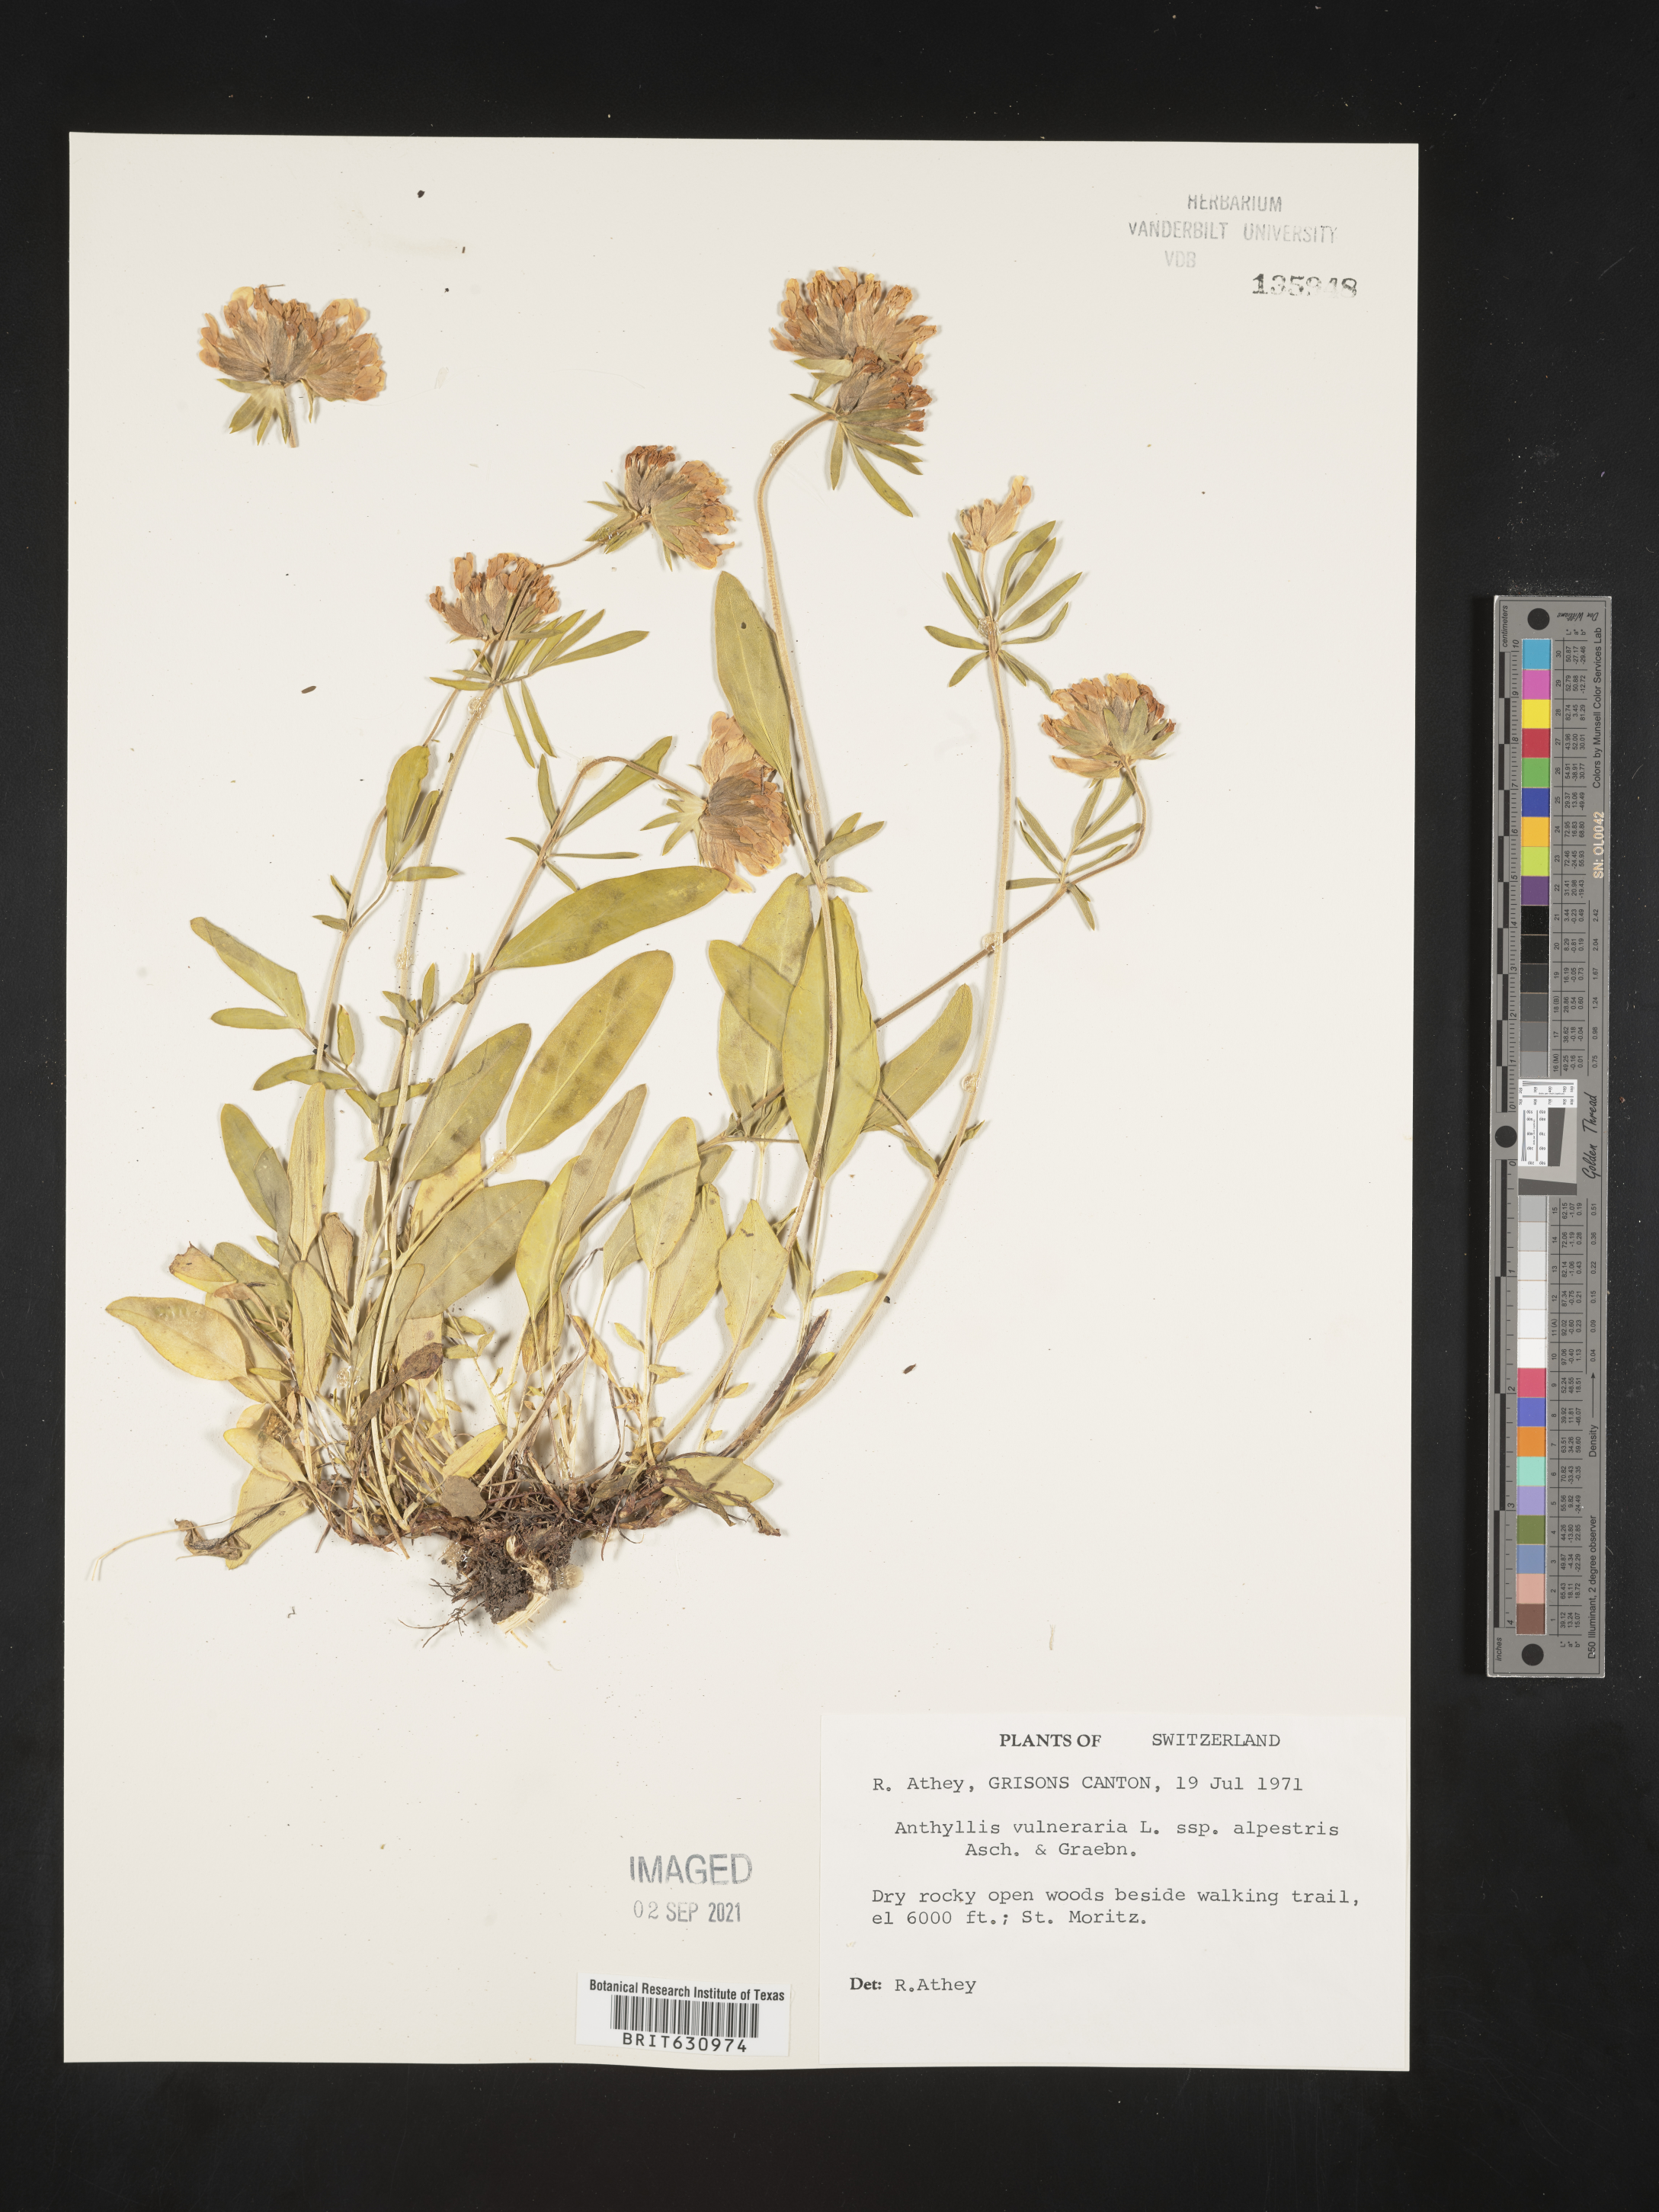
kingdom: Plantae
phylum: Tracheophyta
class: Magnoliopsida
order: Fabales
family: Fabaceae
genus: Anthyllis
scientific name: Anthyllis
